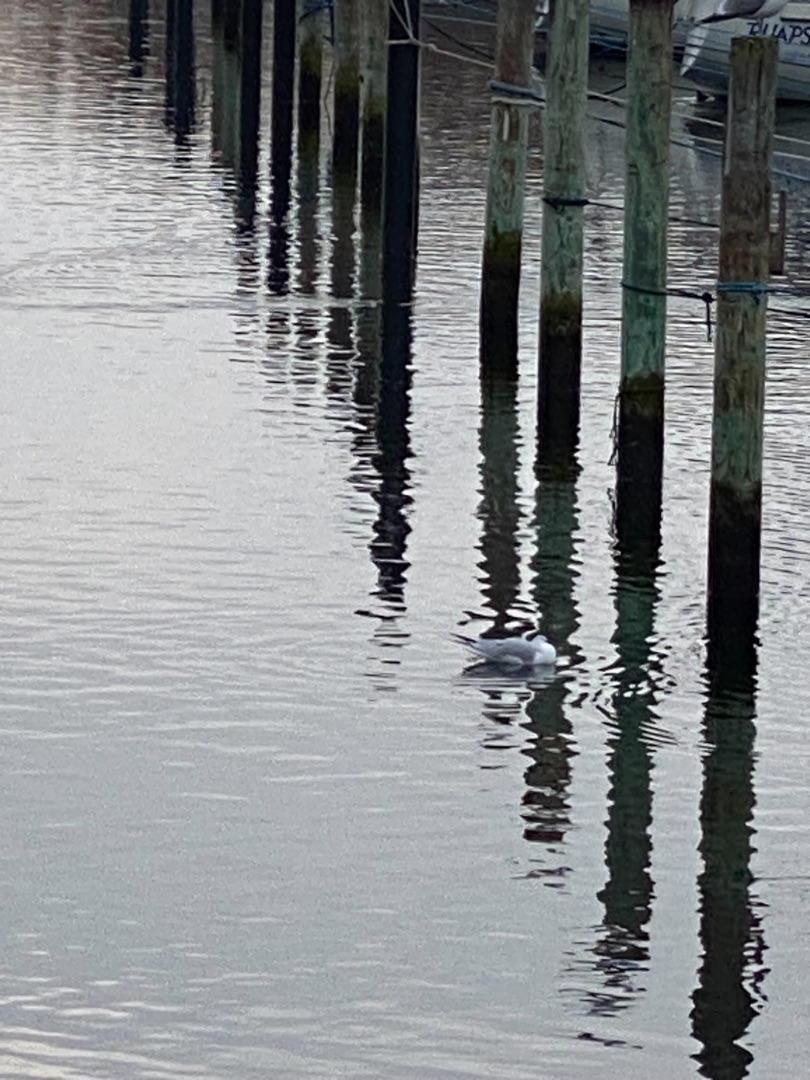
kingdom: Animalia
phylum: Chordata
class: Aves
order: Charadriiformes
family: Laridae
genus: Chroicocephalus
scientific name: Chroicocephalus ridibundus
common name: Hættemåge
